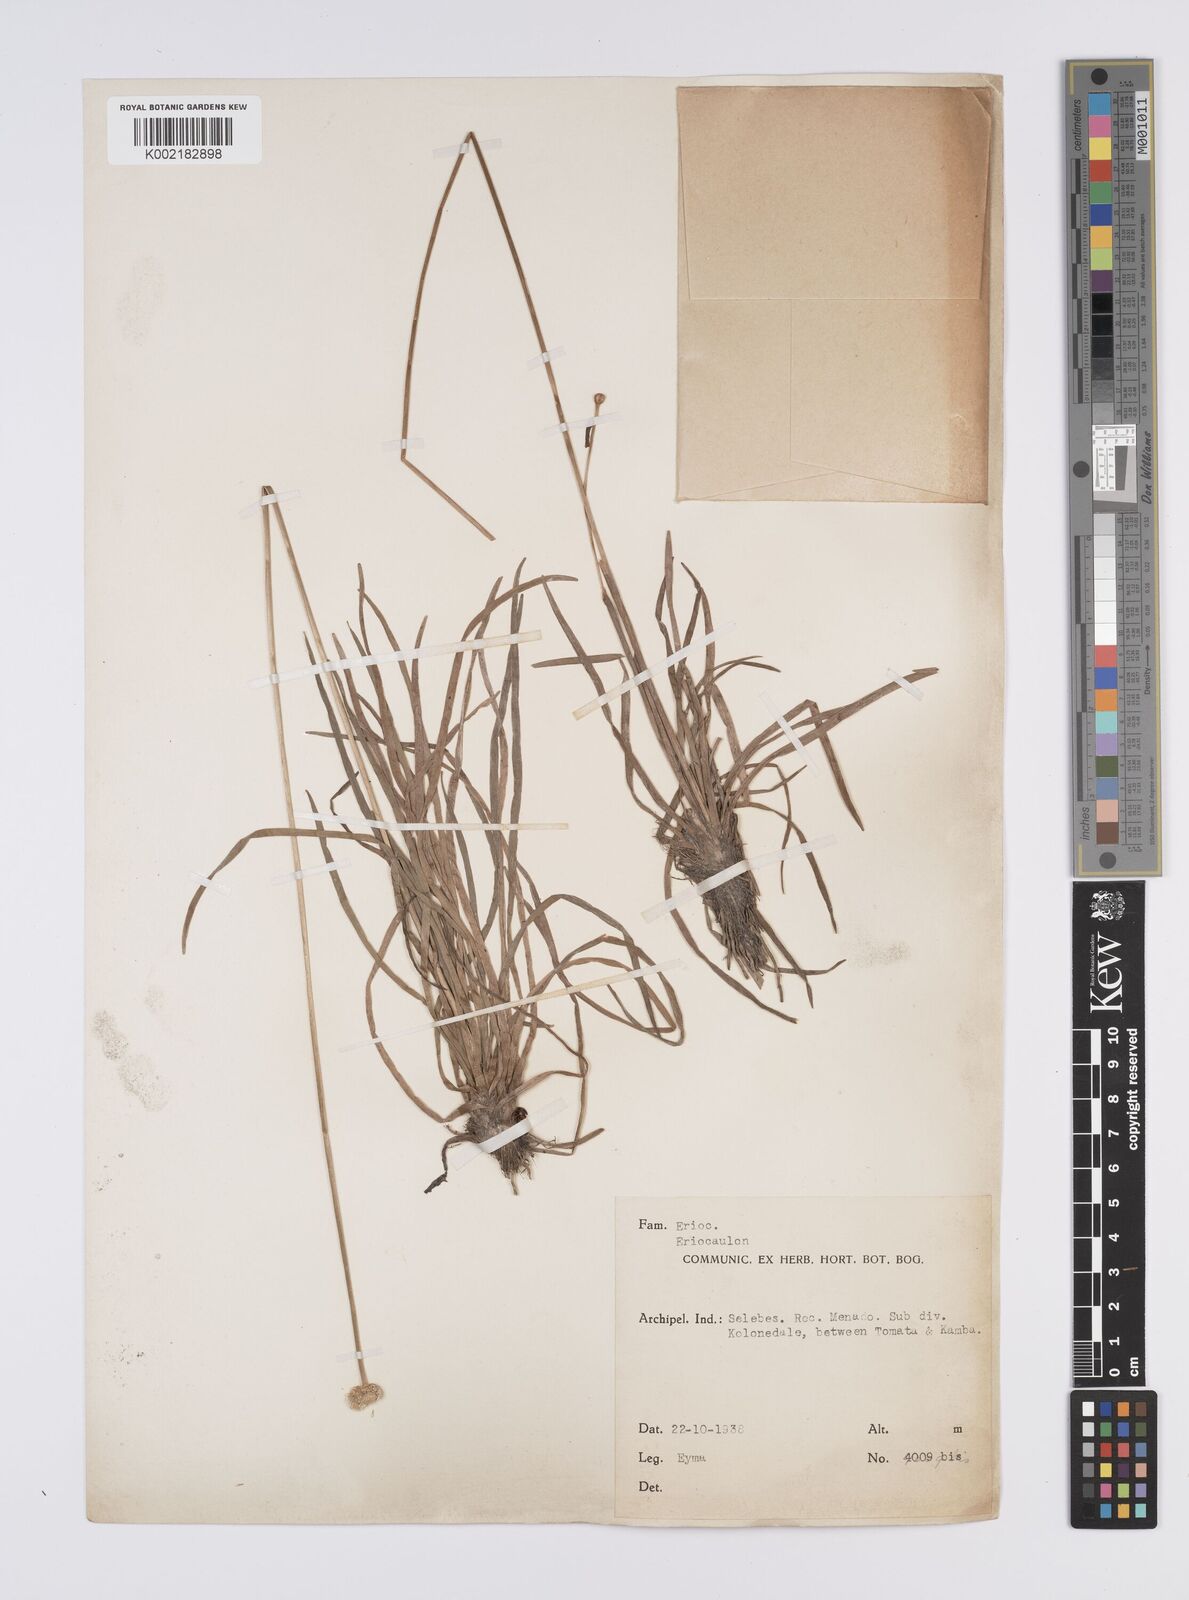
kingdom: Plantae
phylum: Tracheophyta
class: Liliopsida
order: Poales
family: Eriocaulaceae
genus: Eriocaulon
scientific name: Eriocaulon
